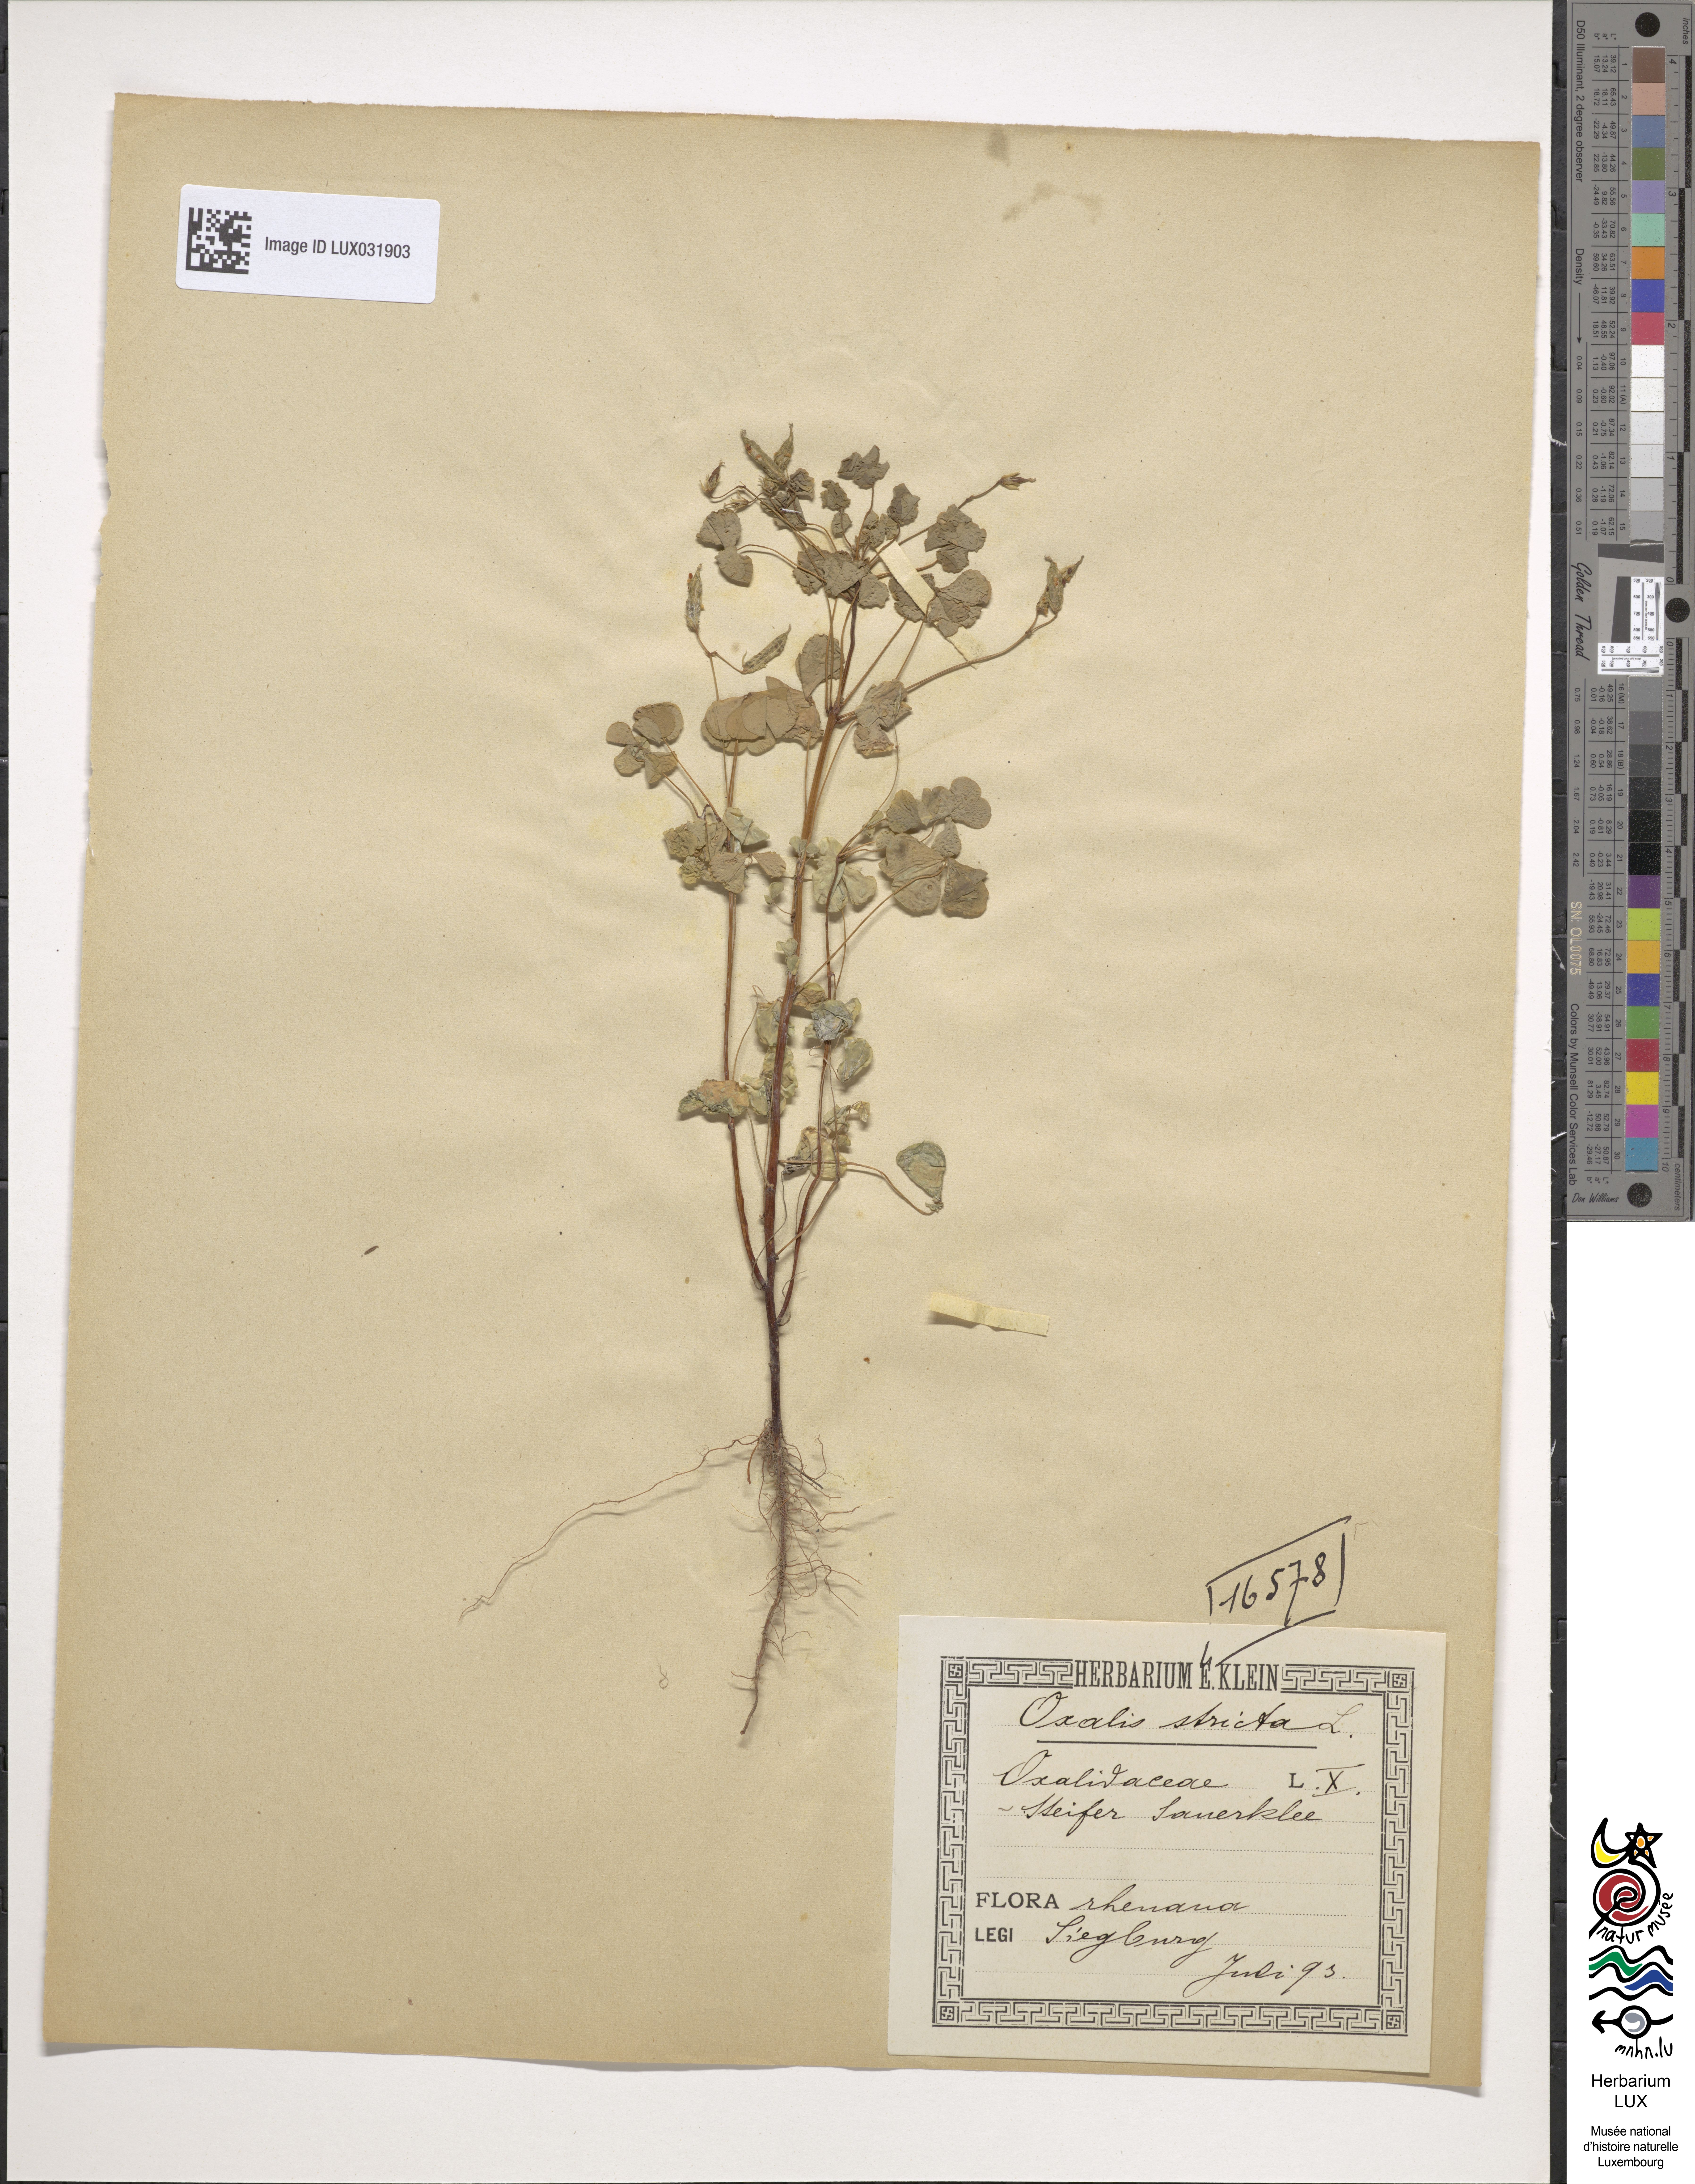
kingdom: Plantae
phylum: Tracheophyta
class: Magnoliopsida
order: Oxalidales
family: Oxalidaceae
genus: Oxalis
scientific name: Oxalis stricta
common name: Upright yellow-sorrel
